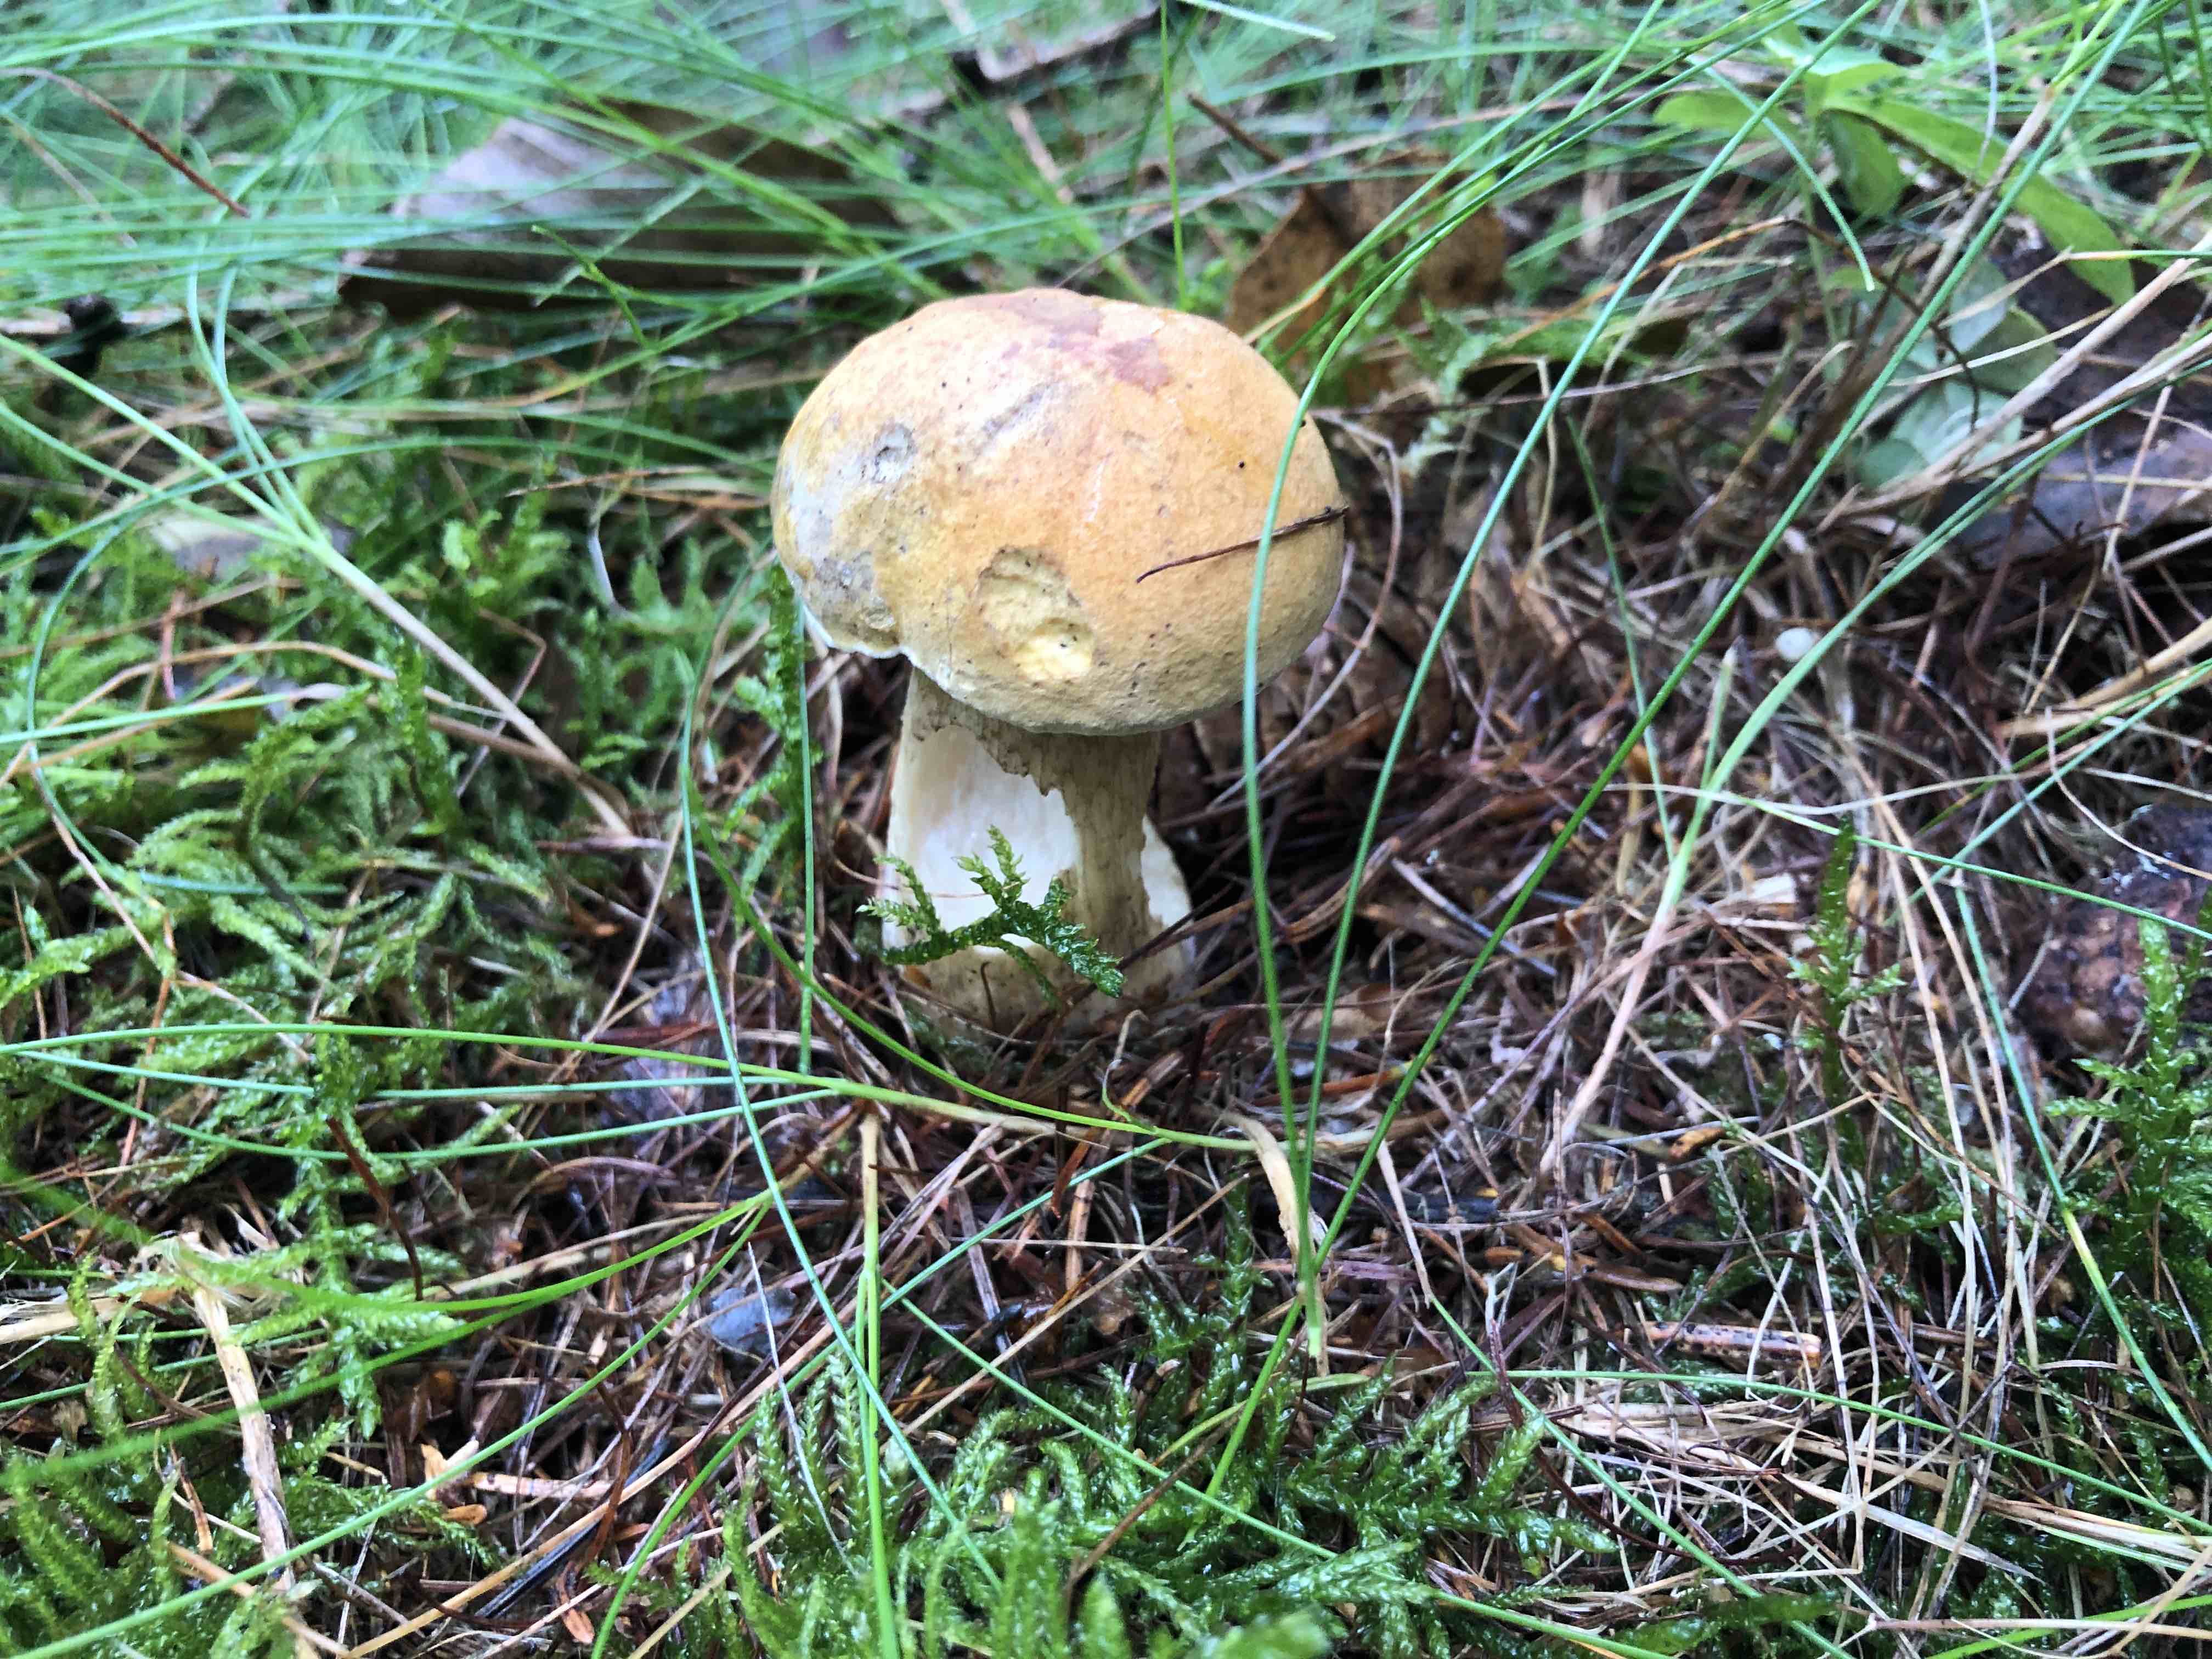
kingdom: Fungi
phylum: Basidiomycota
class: Agaricomycetes
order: Boletales
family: Boletaceae
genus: Tylopilus
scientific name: Tylopilus felleus
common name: galderørhat
